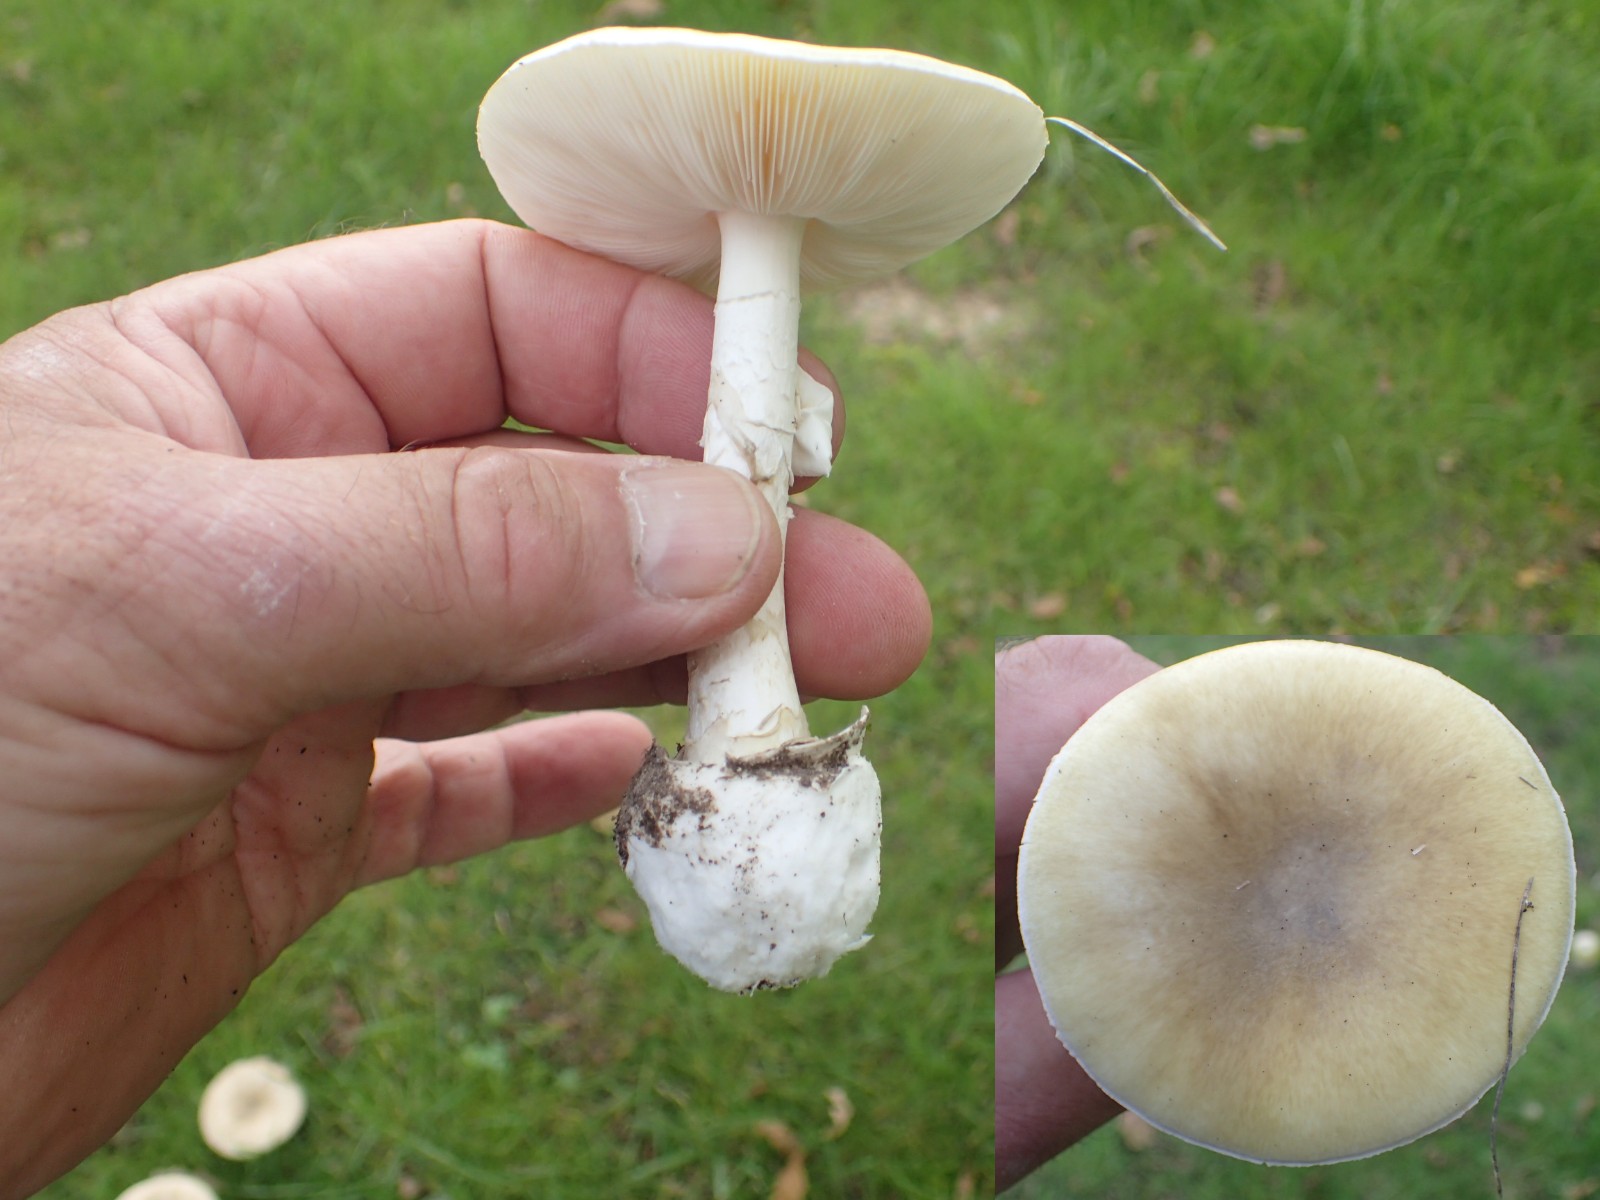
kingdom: Fungi
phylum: Basidiomycota
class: Agaricomycetes
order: Agaricales
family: Amanitaceae
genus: Amanita
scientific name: Amanita phalloides
